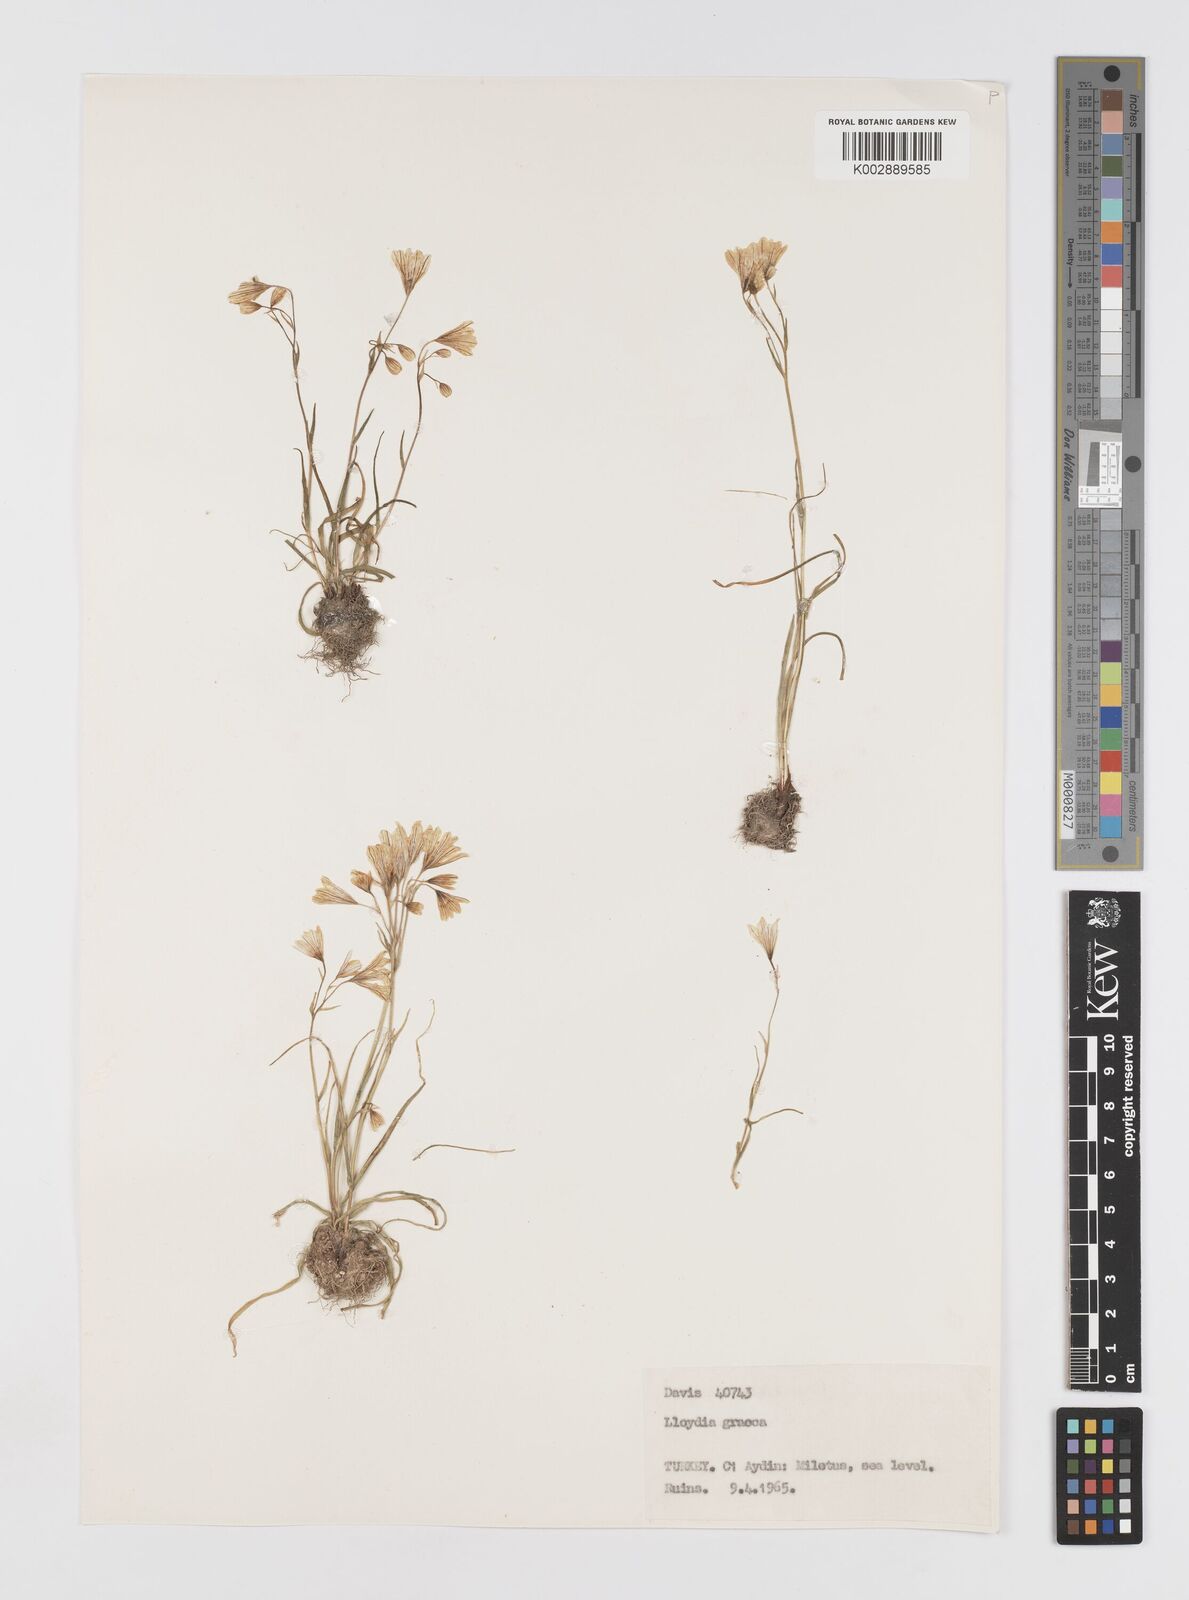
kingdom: Plantae
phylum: Tracheophyta
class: Liliopsida
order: Liliales
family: Liliaceae
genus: Gagea
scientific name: Gagea graeca
